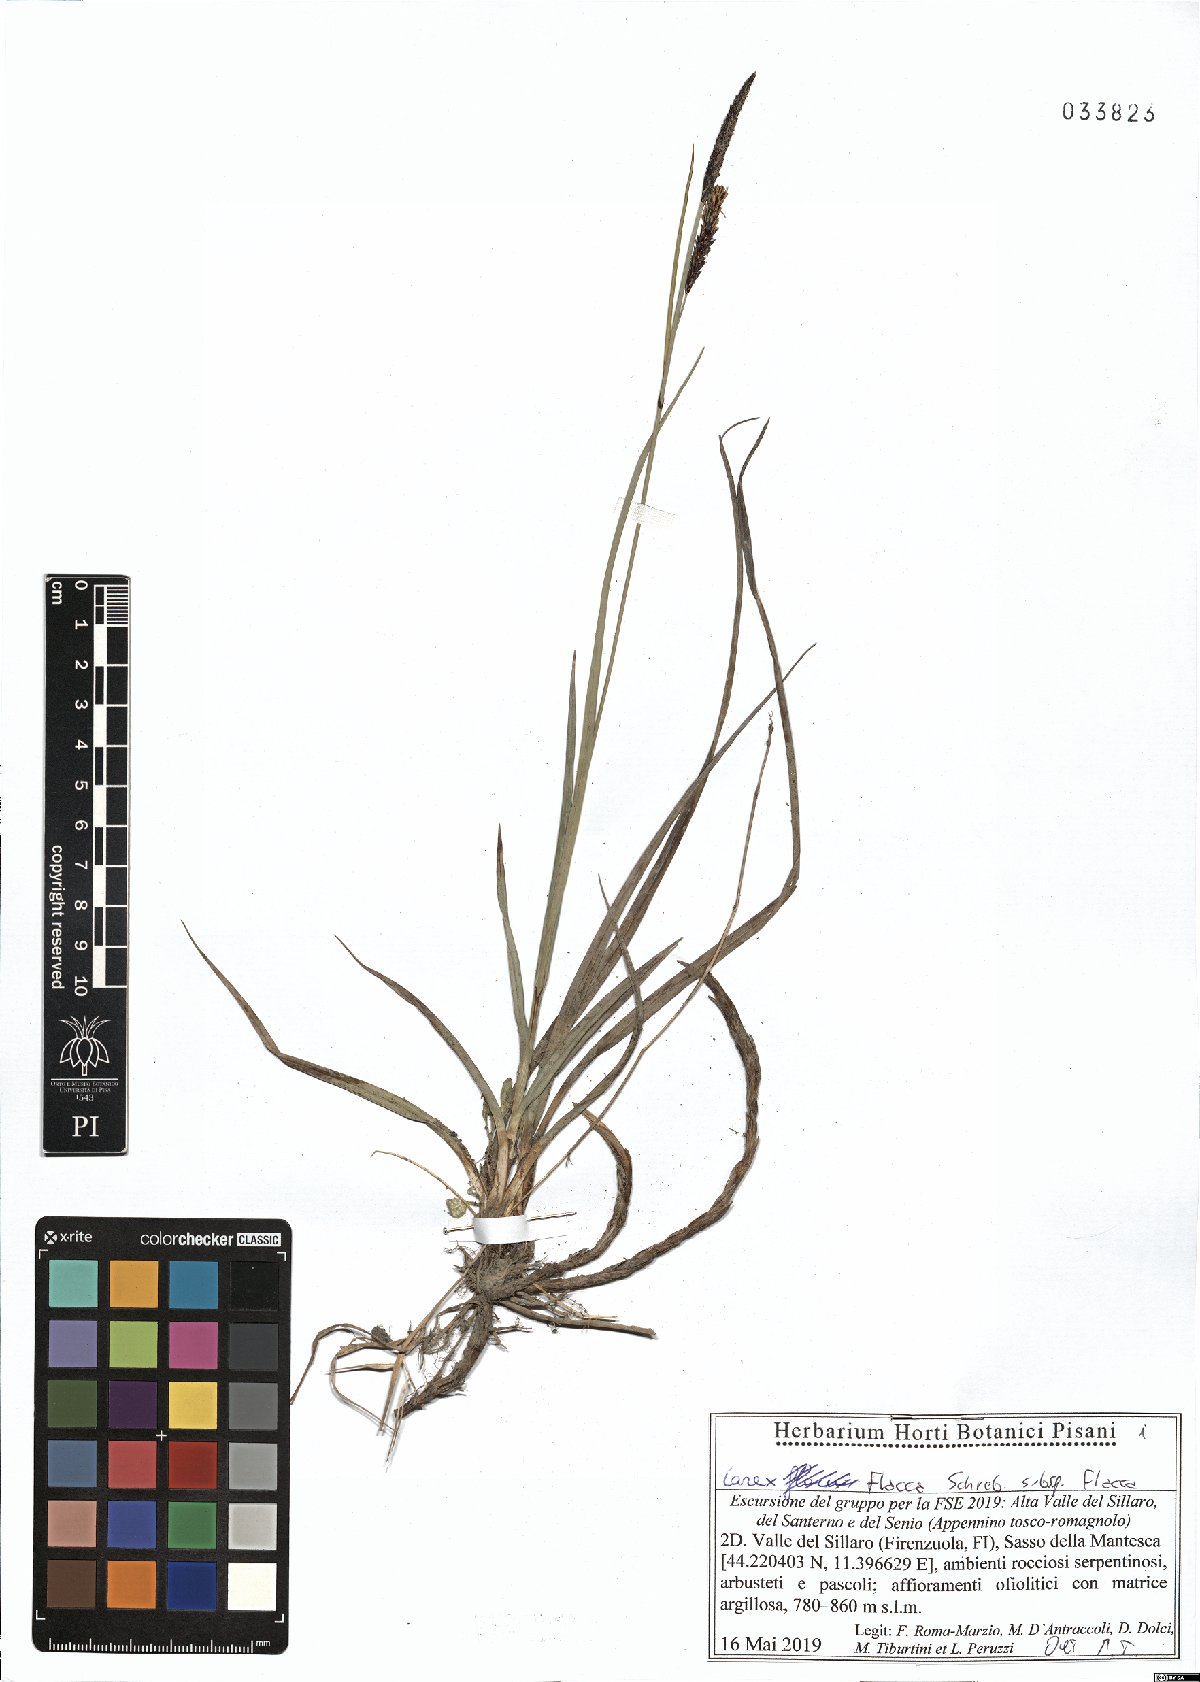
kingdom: Plantae
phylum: Tracheophyta
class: Liliopsida
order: Poales
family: Cyperaceae
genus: Carex
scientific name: Carex flacca
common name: Glaucous sedge
